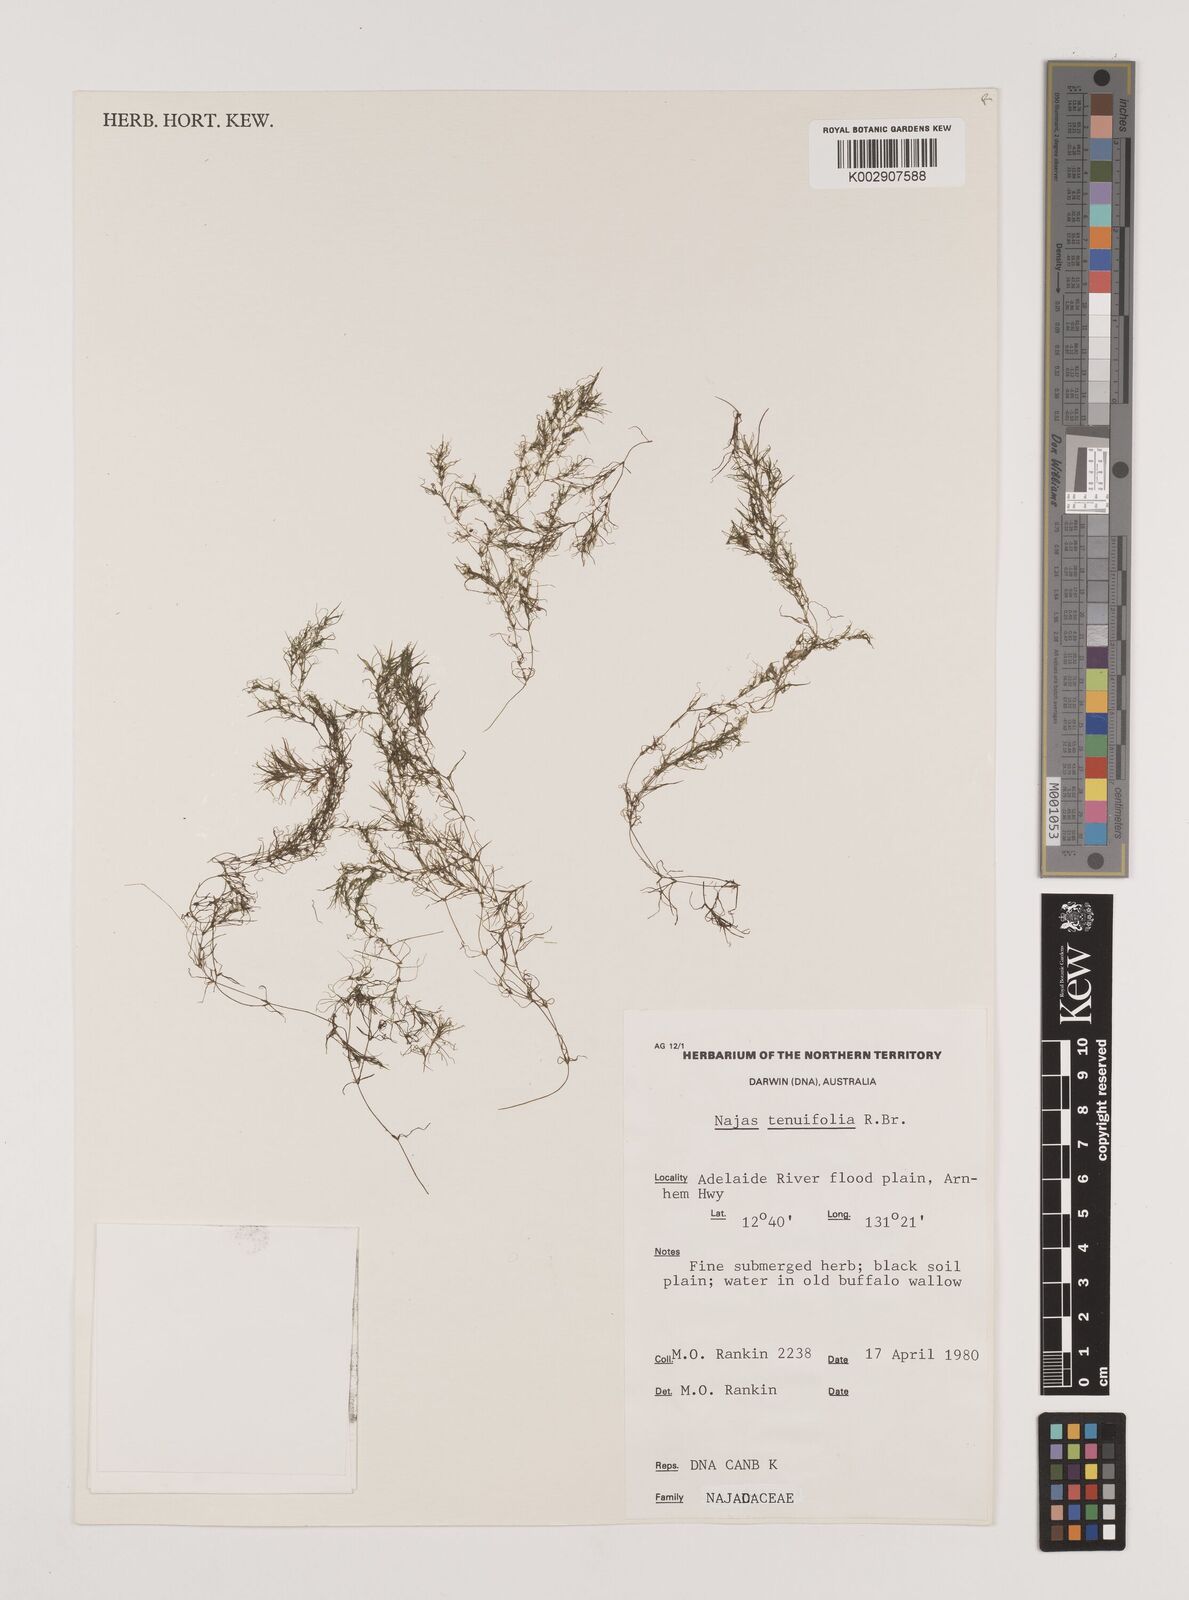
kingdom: Plantae
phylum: Tracheophyta
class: Liliopsida
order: Alismatales
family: Hydrocharitaceae
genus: Najas
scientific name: Najas tenuifolia
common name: Thin-leaved naiad
